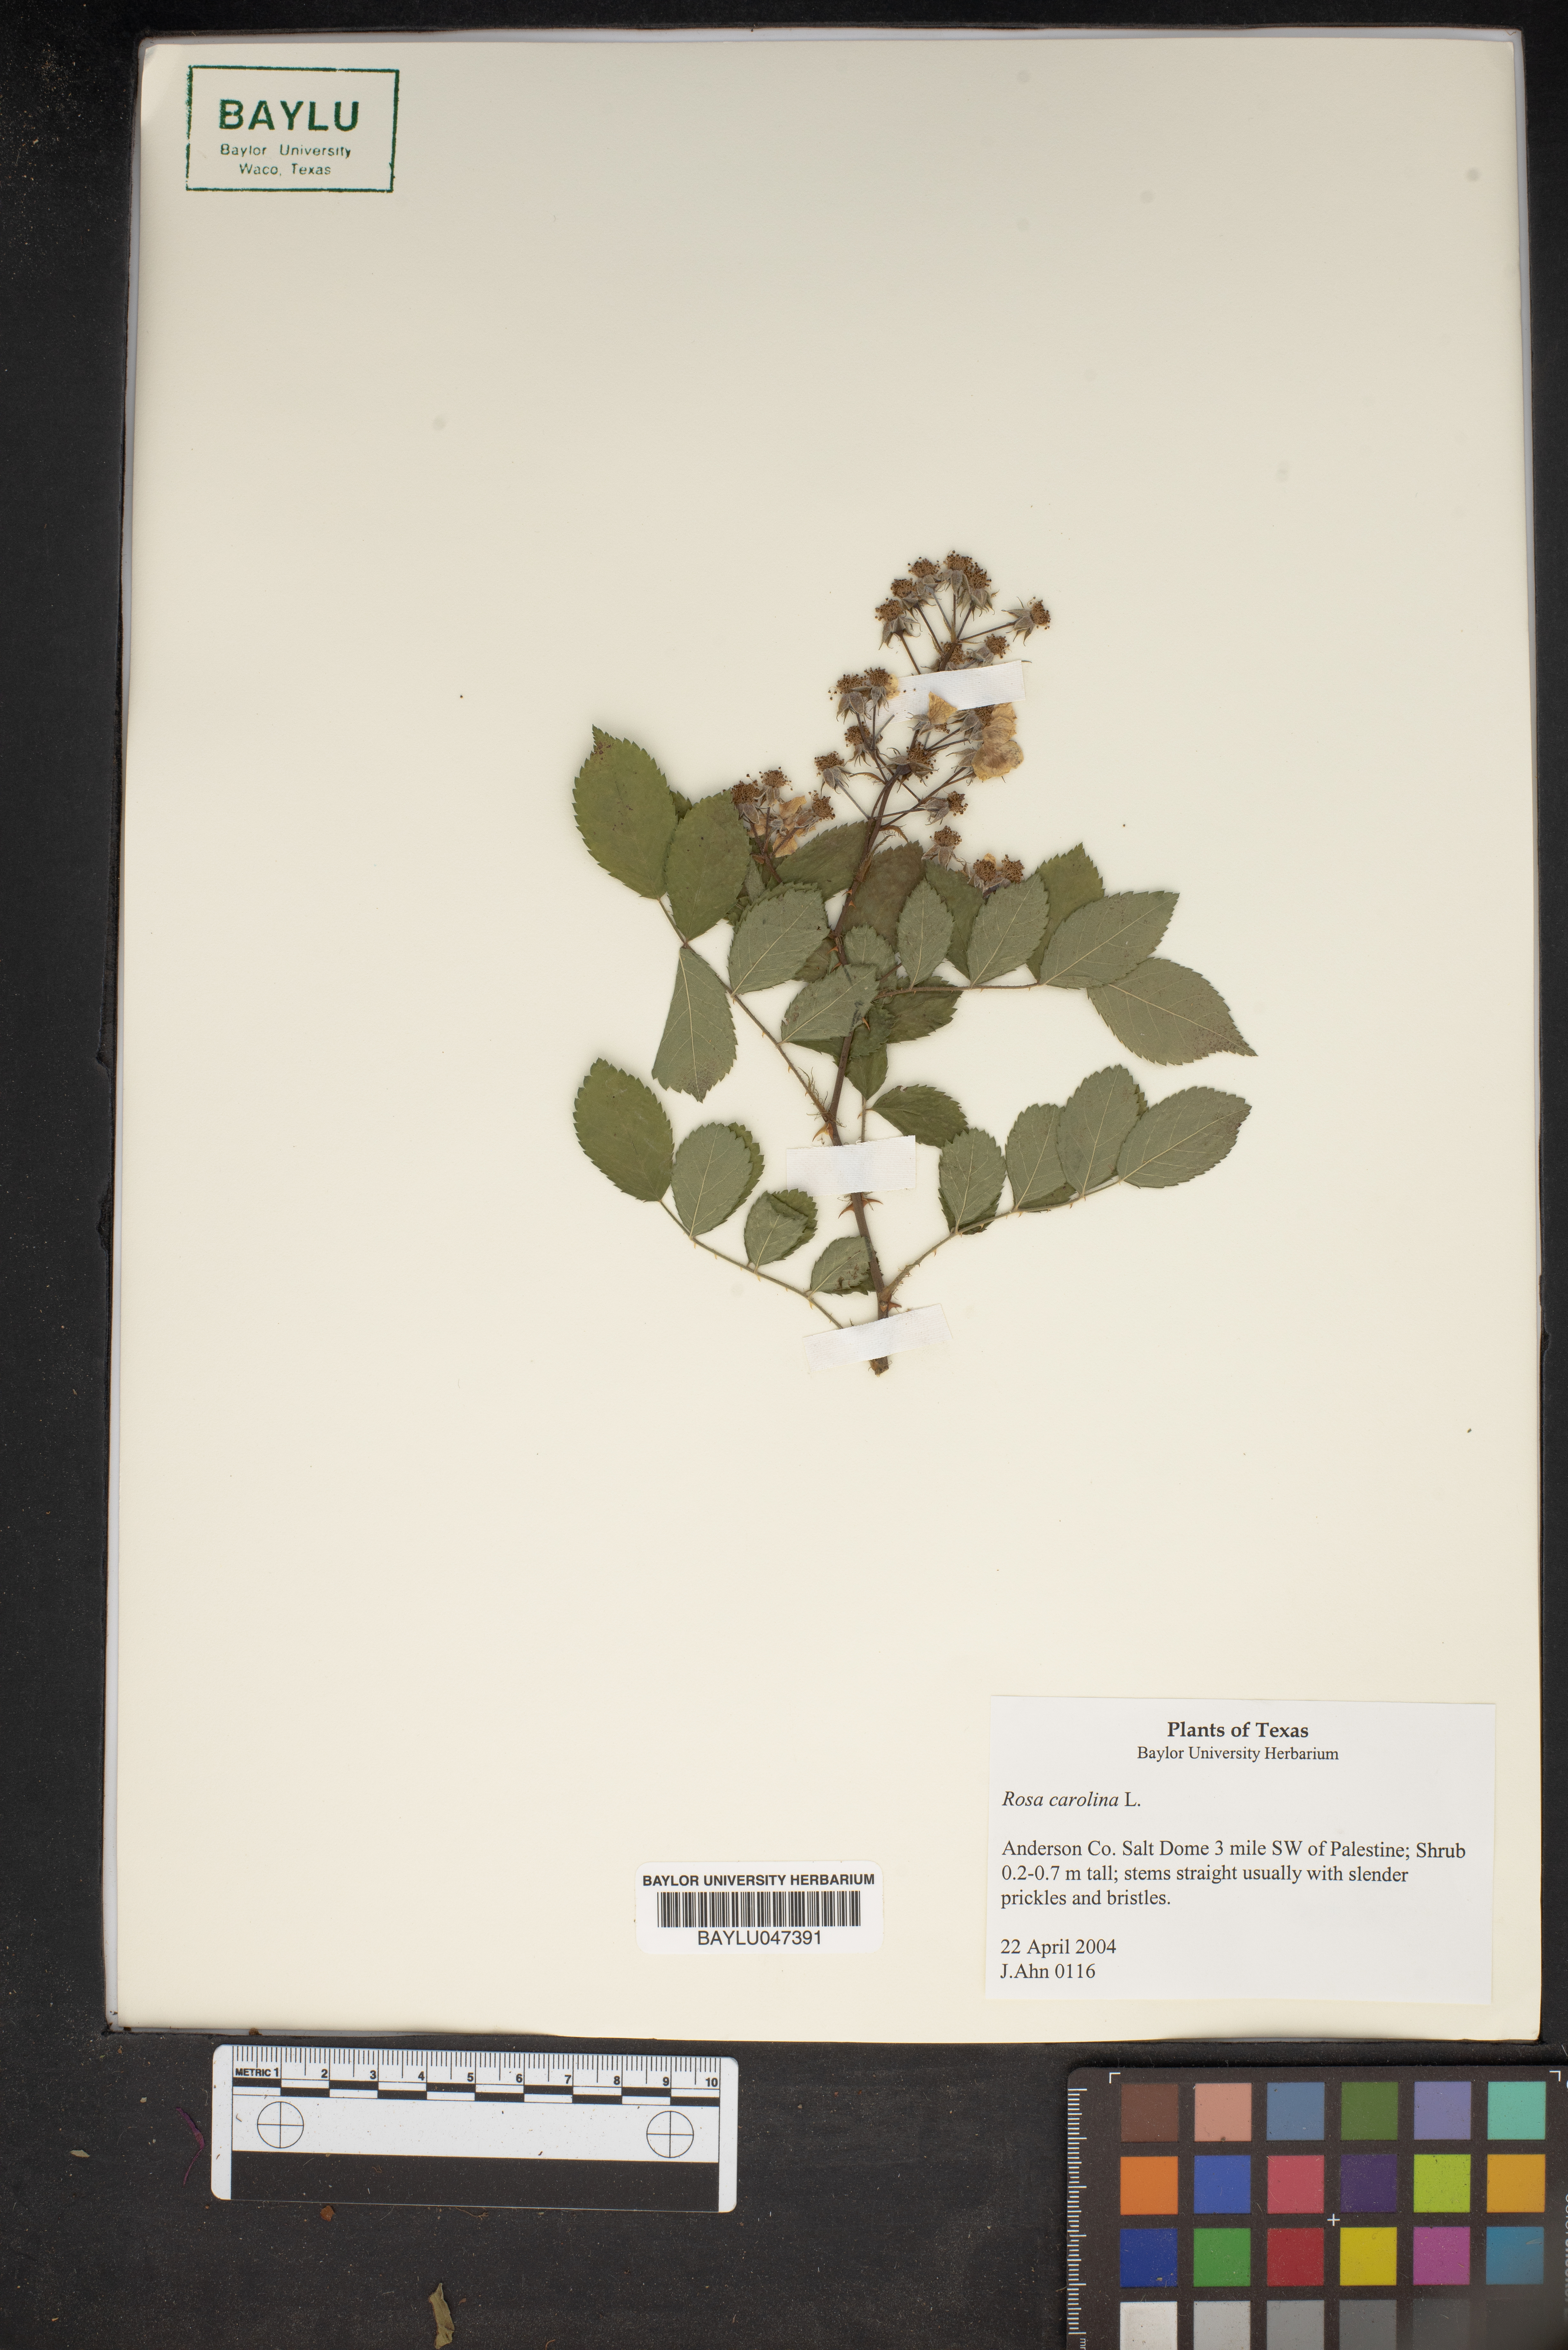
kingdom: Plantae
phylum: Tracheophyta
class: Magnoliopsida
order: Rosales
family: Rosaceae
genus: Rosa
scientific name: Rosa carolina
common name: Pasture rose
